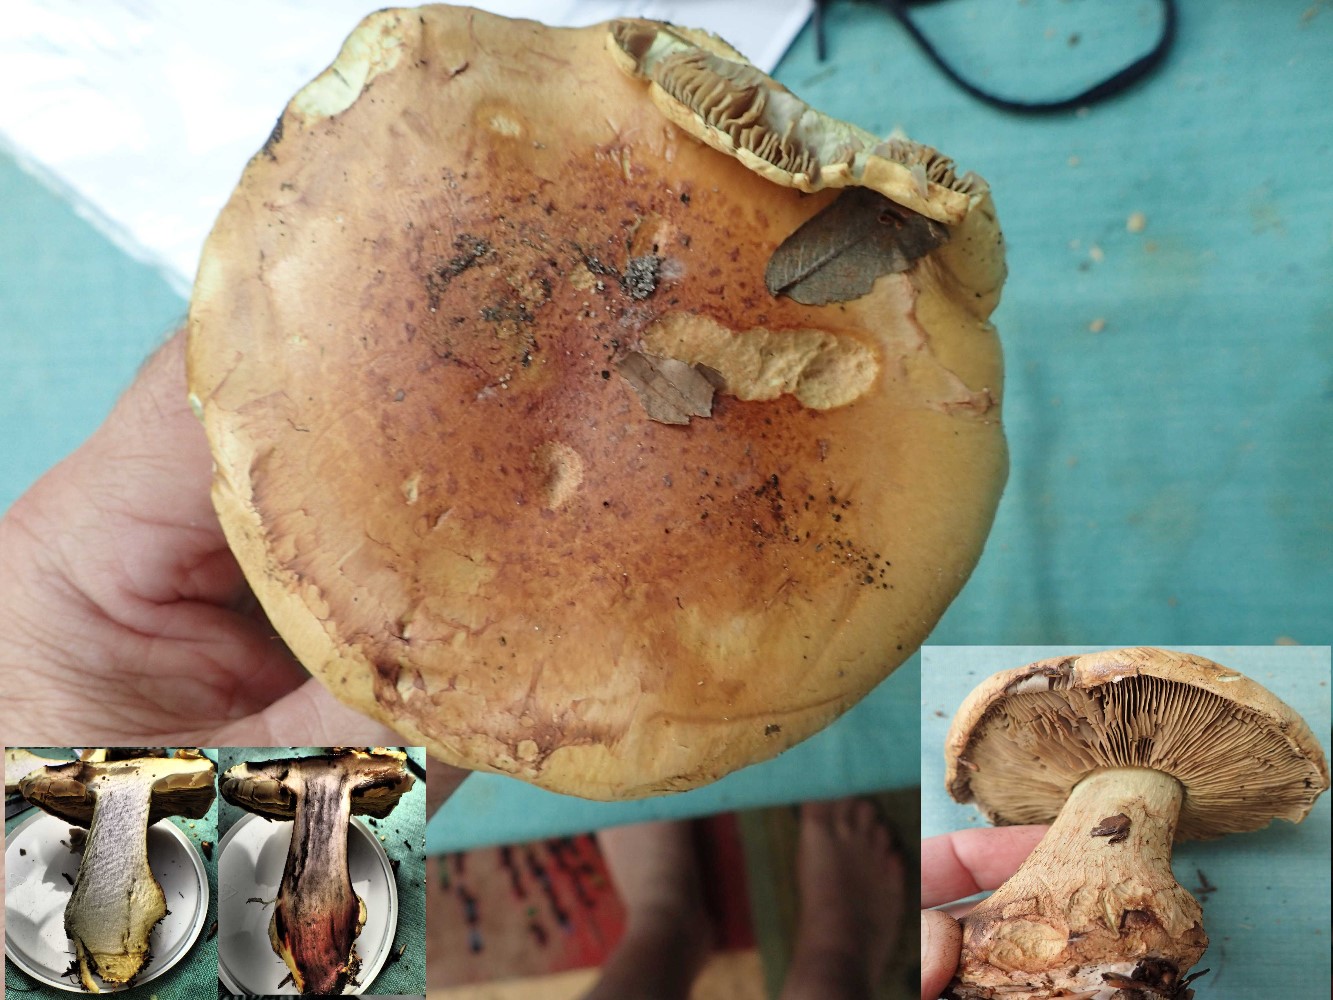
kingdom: Fungi
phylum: Basidiomycota
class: Agaricomycetes
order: Agaricales
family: Cortinariaceae
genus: Calonarius
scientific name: Calonarius elegantissimus
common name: orangegylden slørhat
